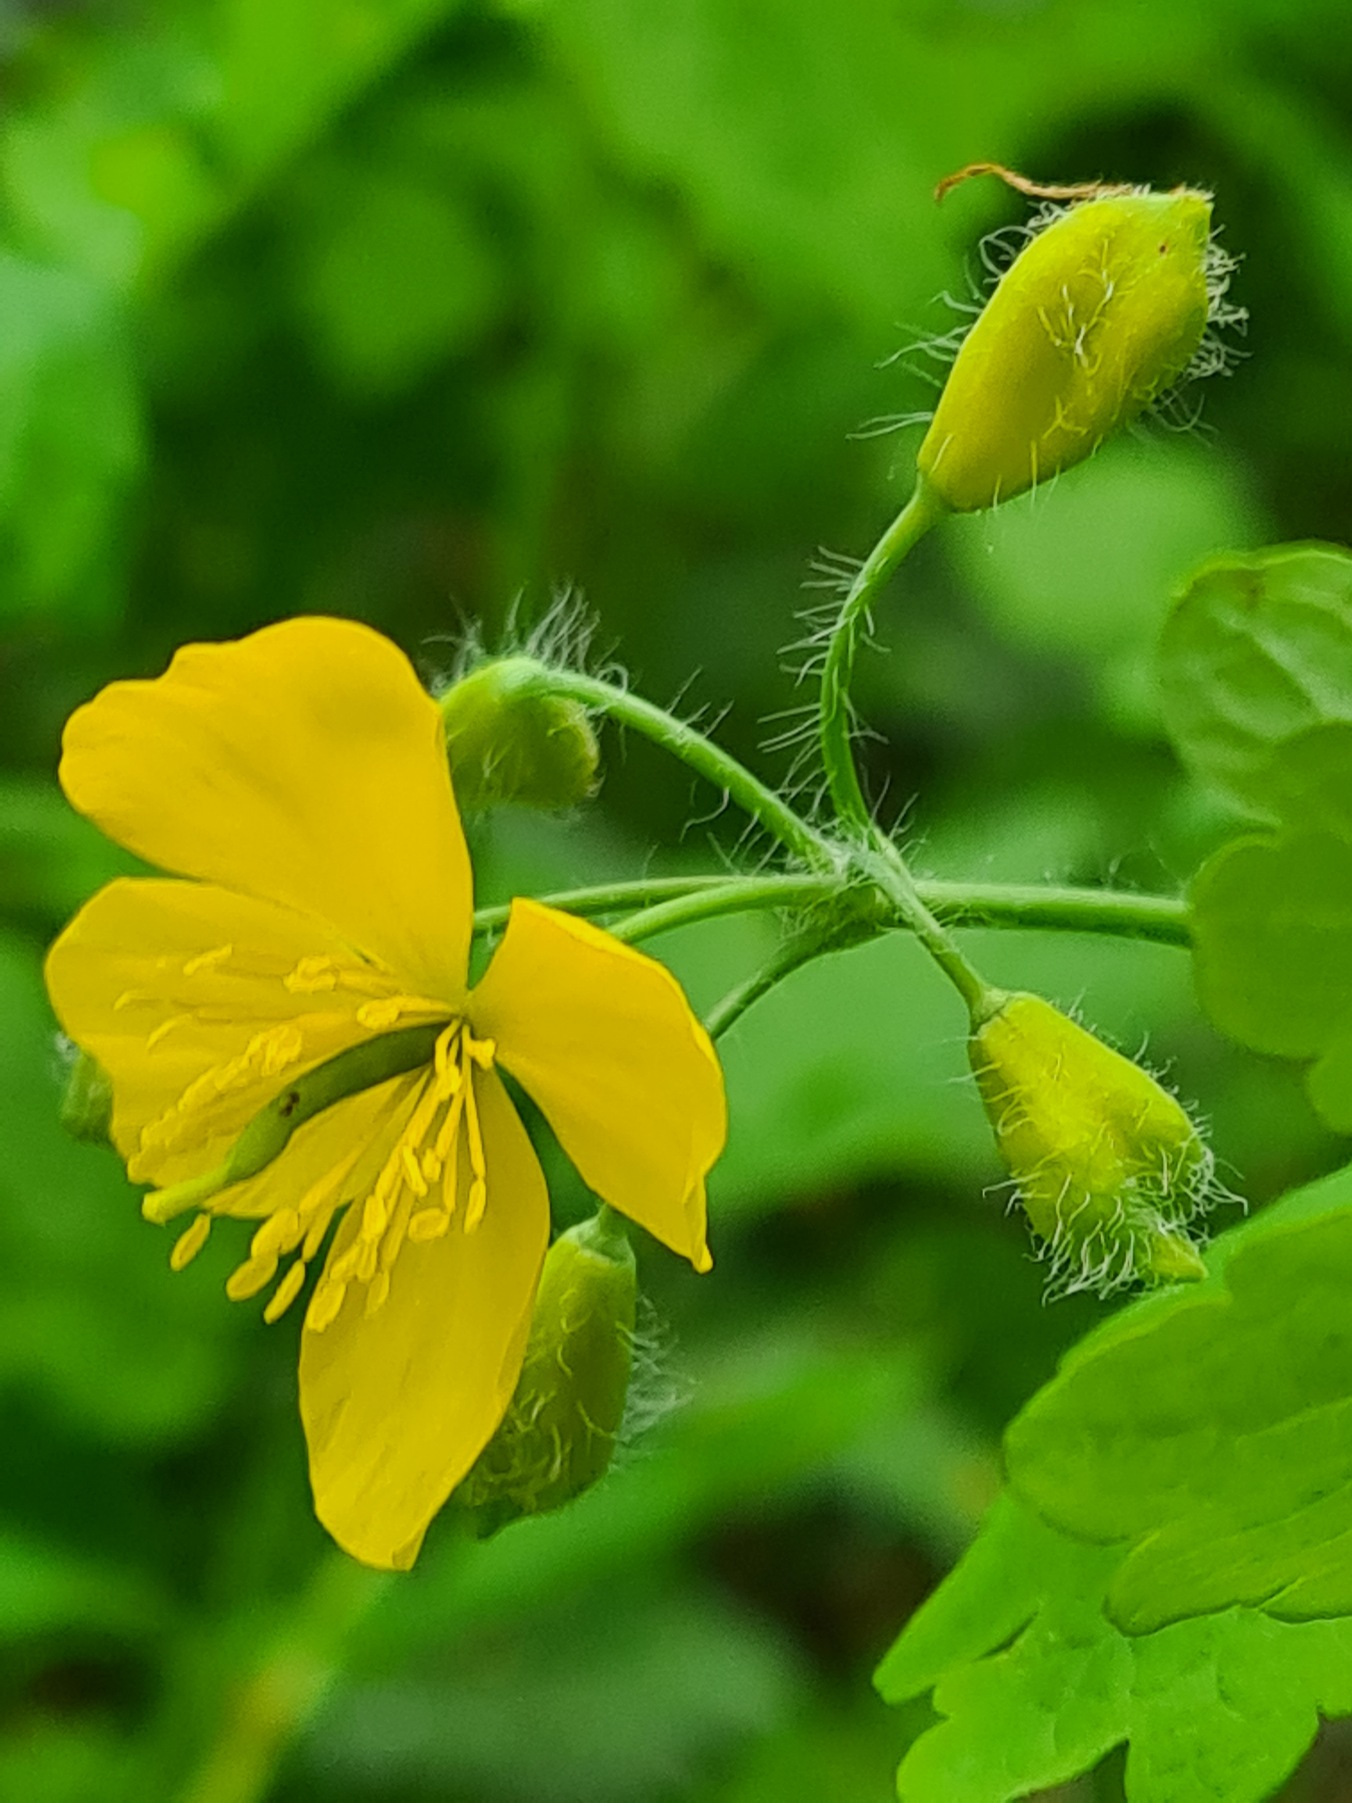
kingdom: Plantae
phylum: Tracheophyta
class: Magnoliopsida
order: Ranunculales
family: Papaveraceae
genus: Chelidonium
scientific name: Chelidonium majus
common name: Svaleurt
